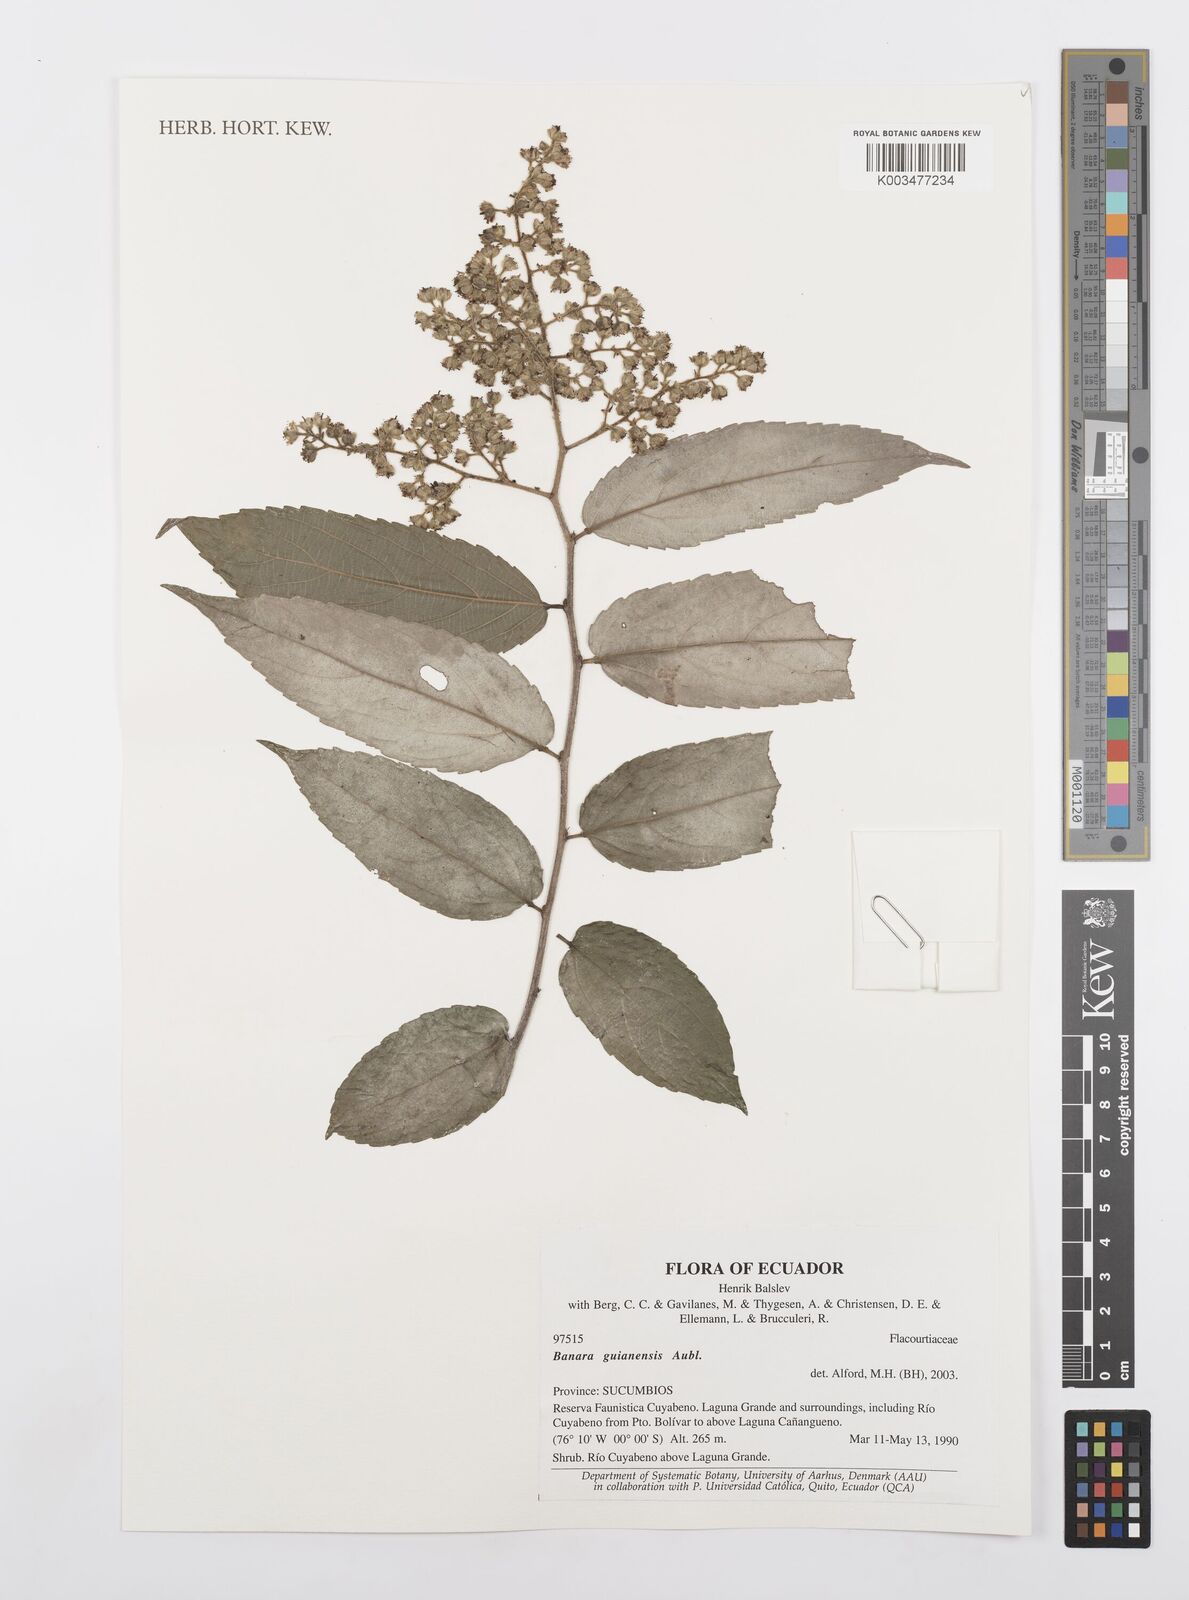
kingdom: Plantae
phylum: Tracheophyta
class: Magnoliopsida
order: Malpighiales
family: Salicaceae
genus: Banara
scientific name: Banara guianensis
